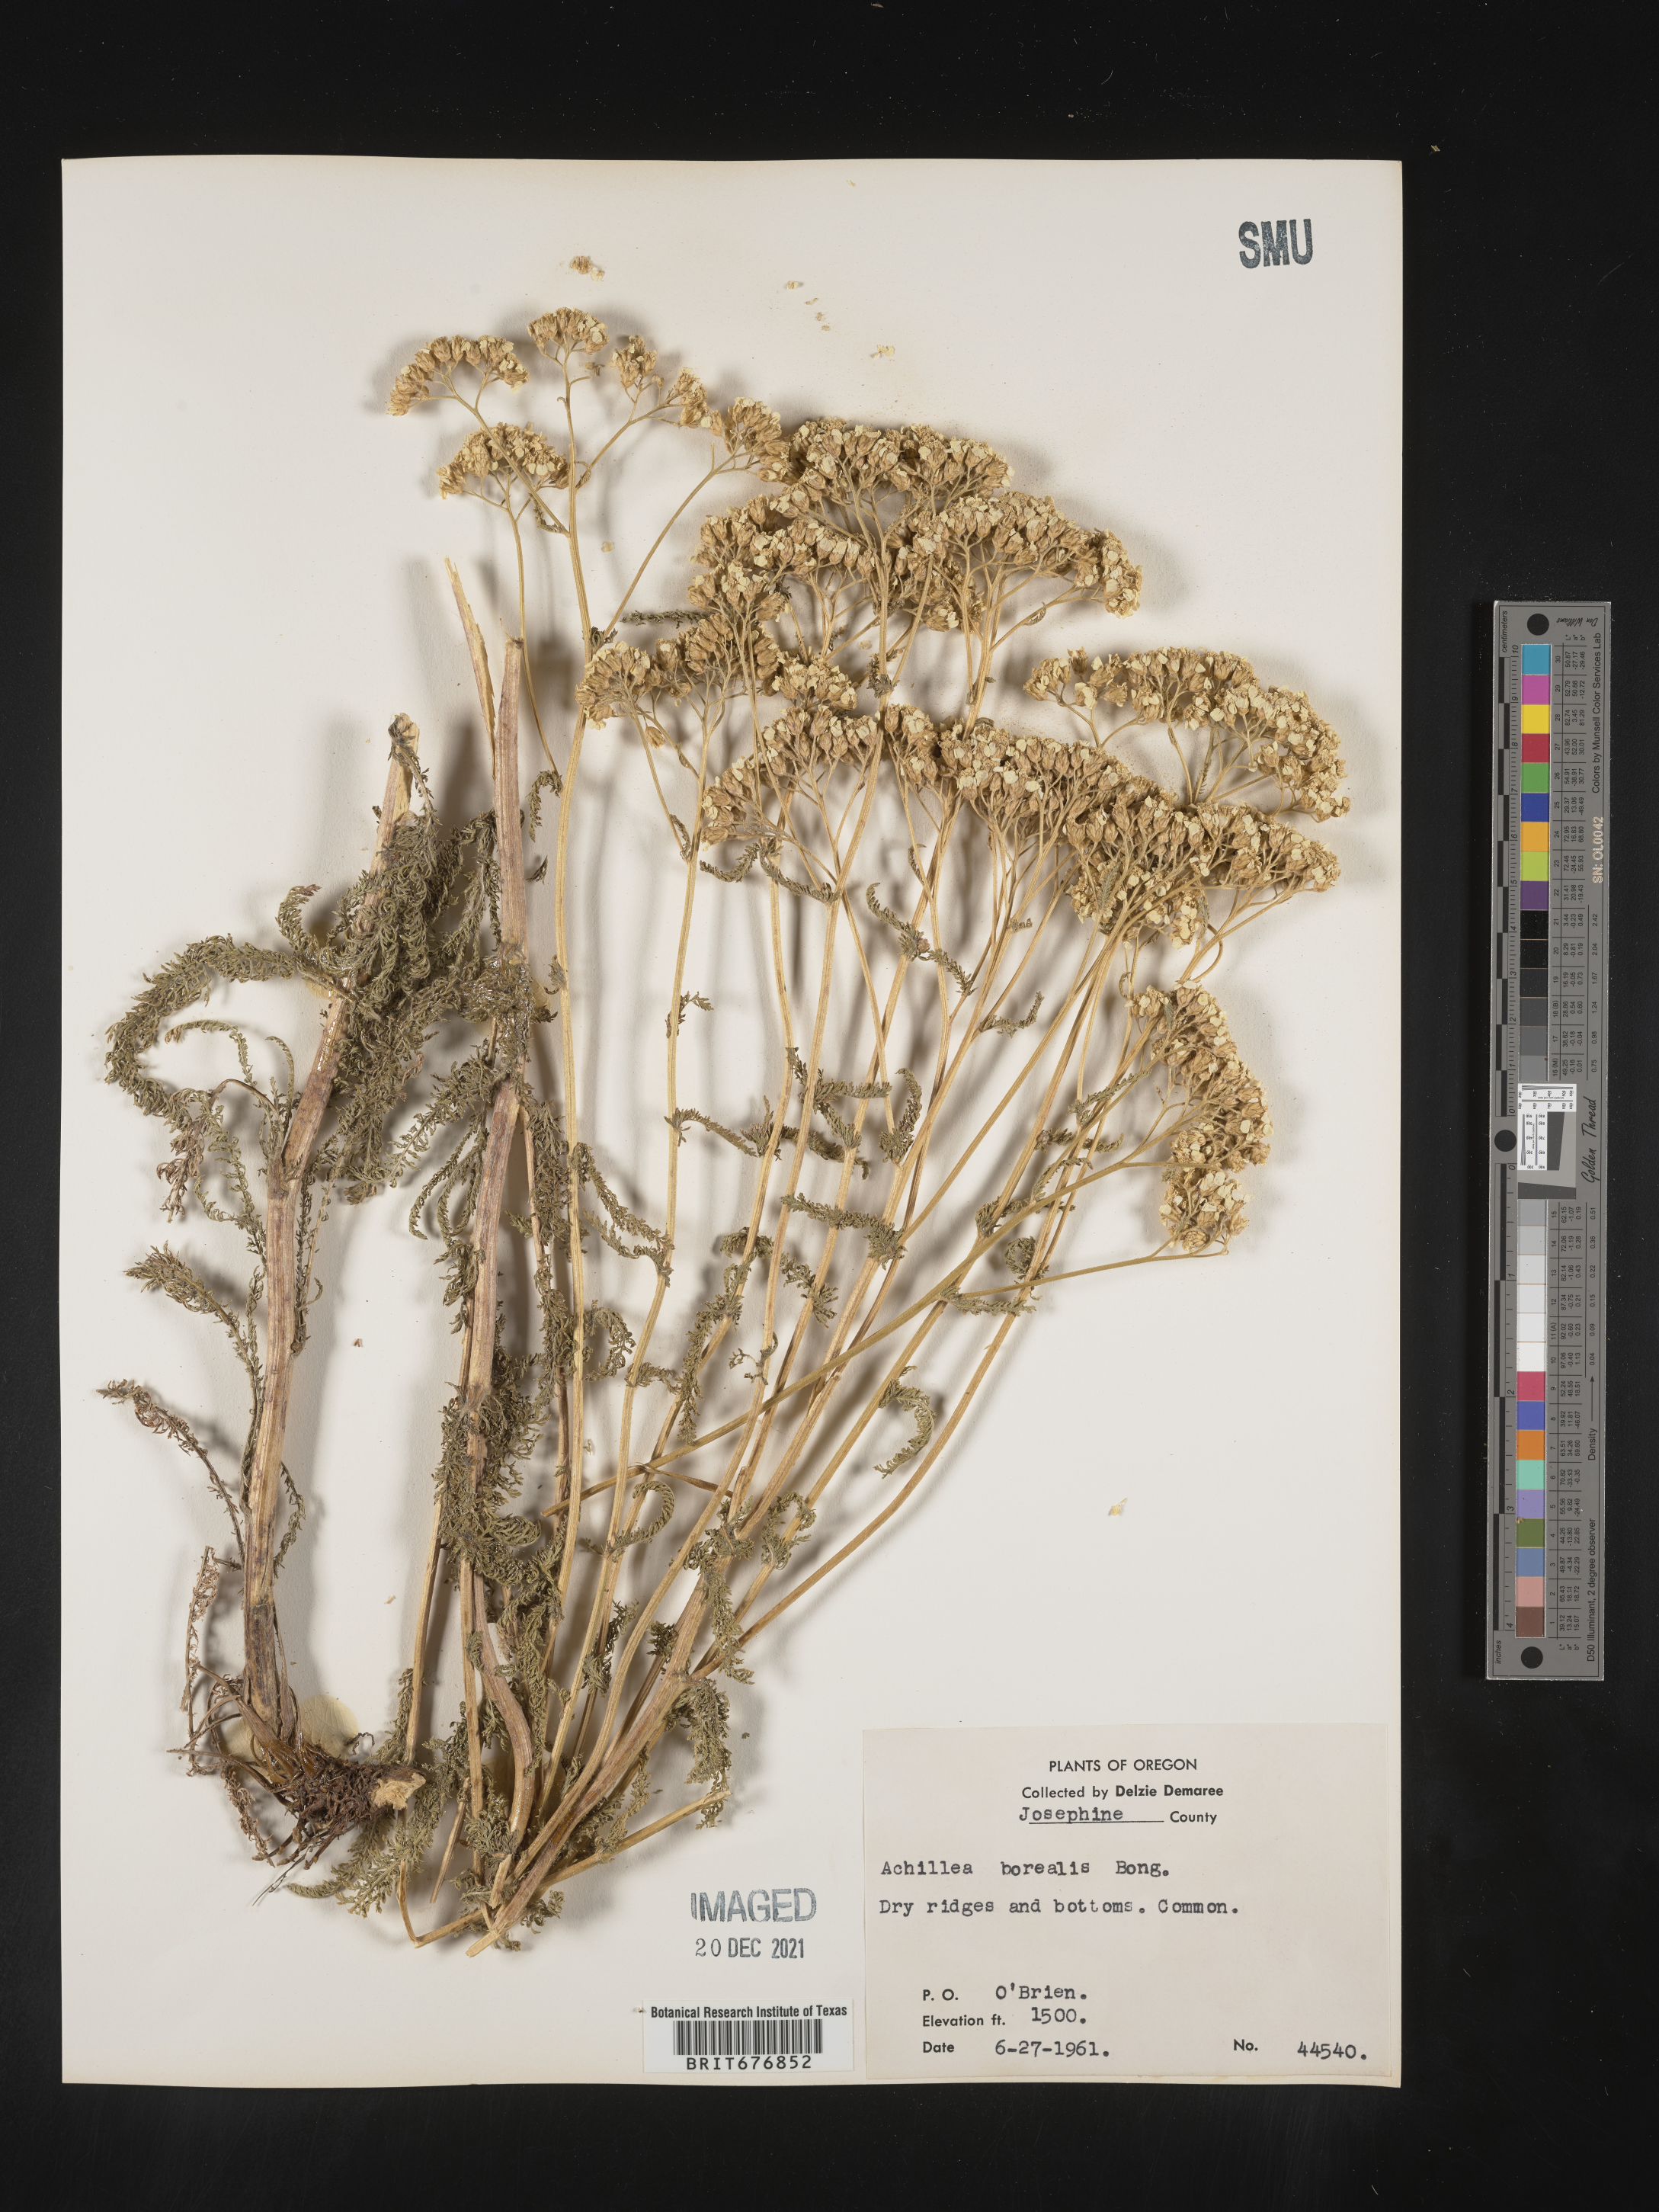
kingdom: Plantae
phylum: Tracheophyta
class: Magnoliopsida
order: Asterales
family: Asteraceae
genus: Achillea
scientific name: Achillea
